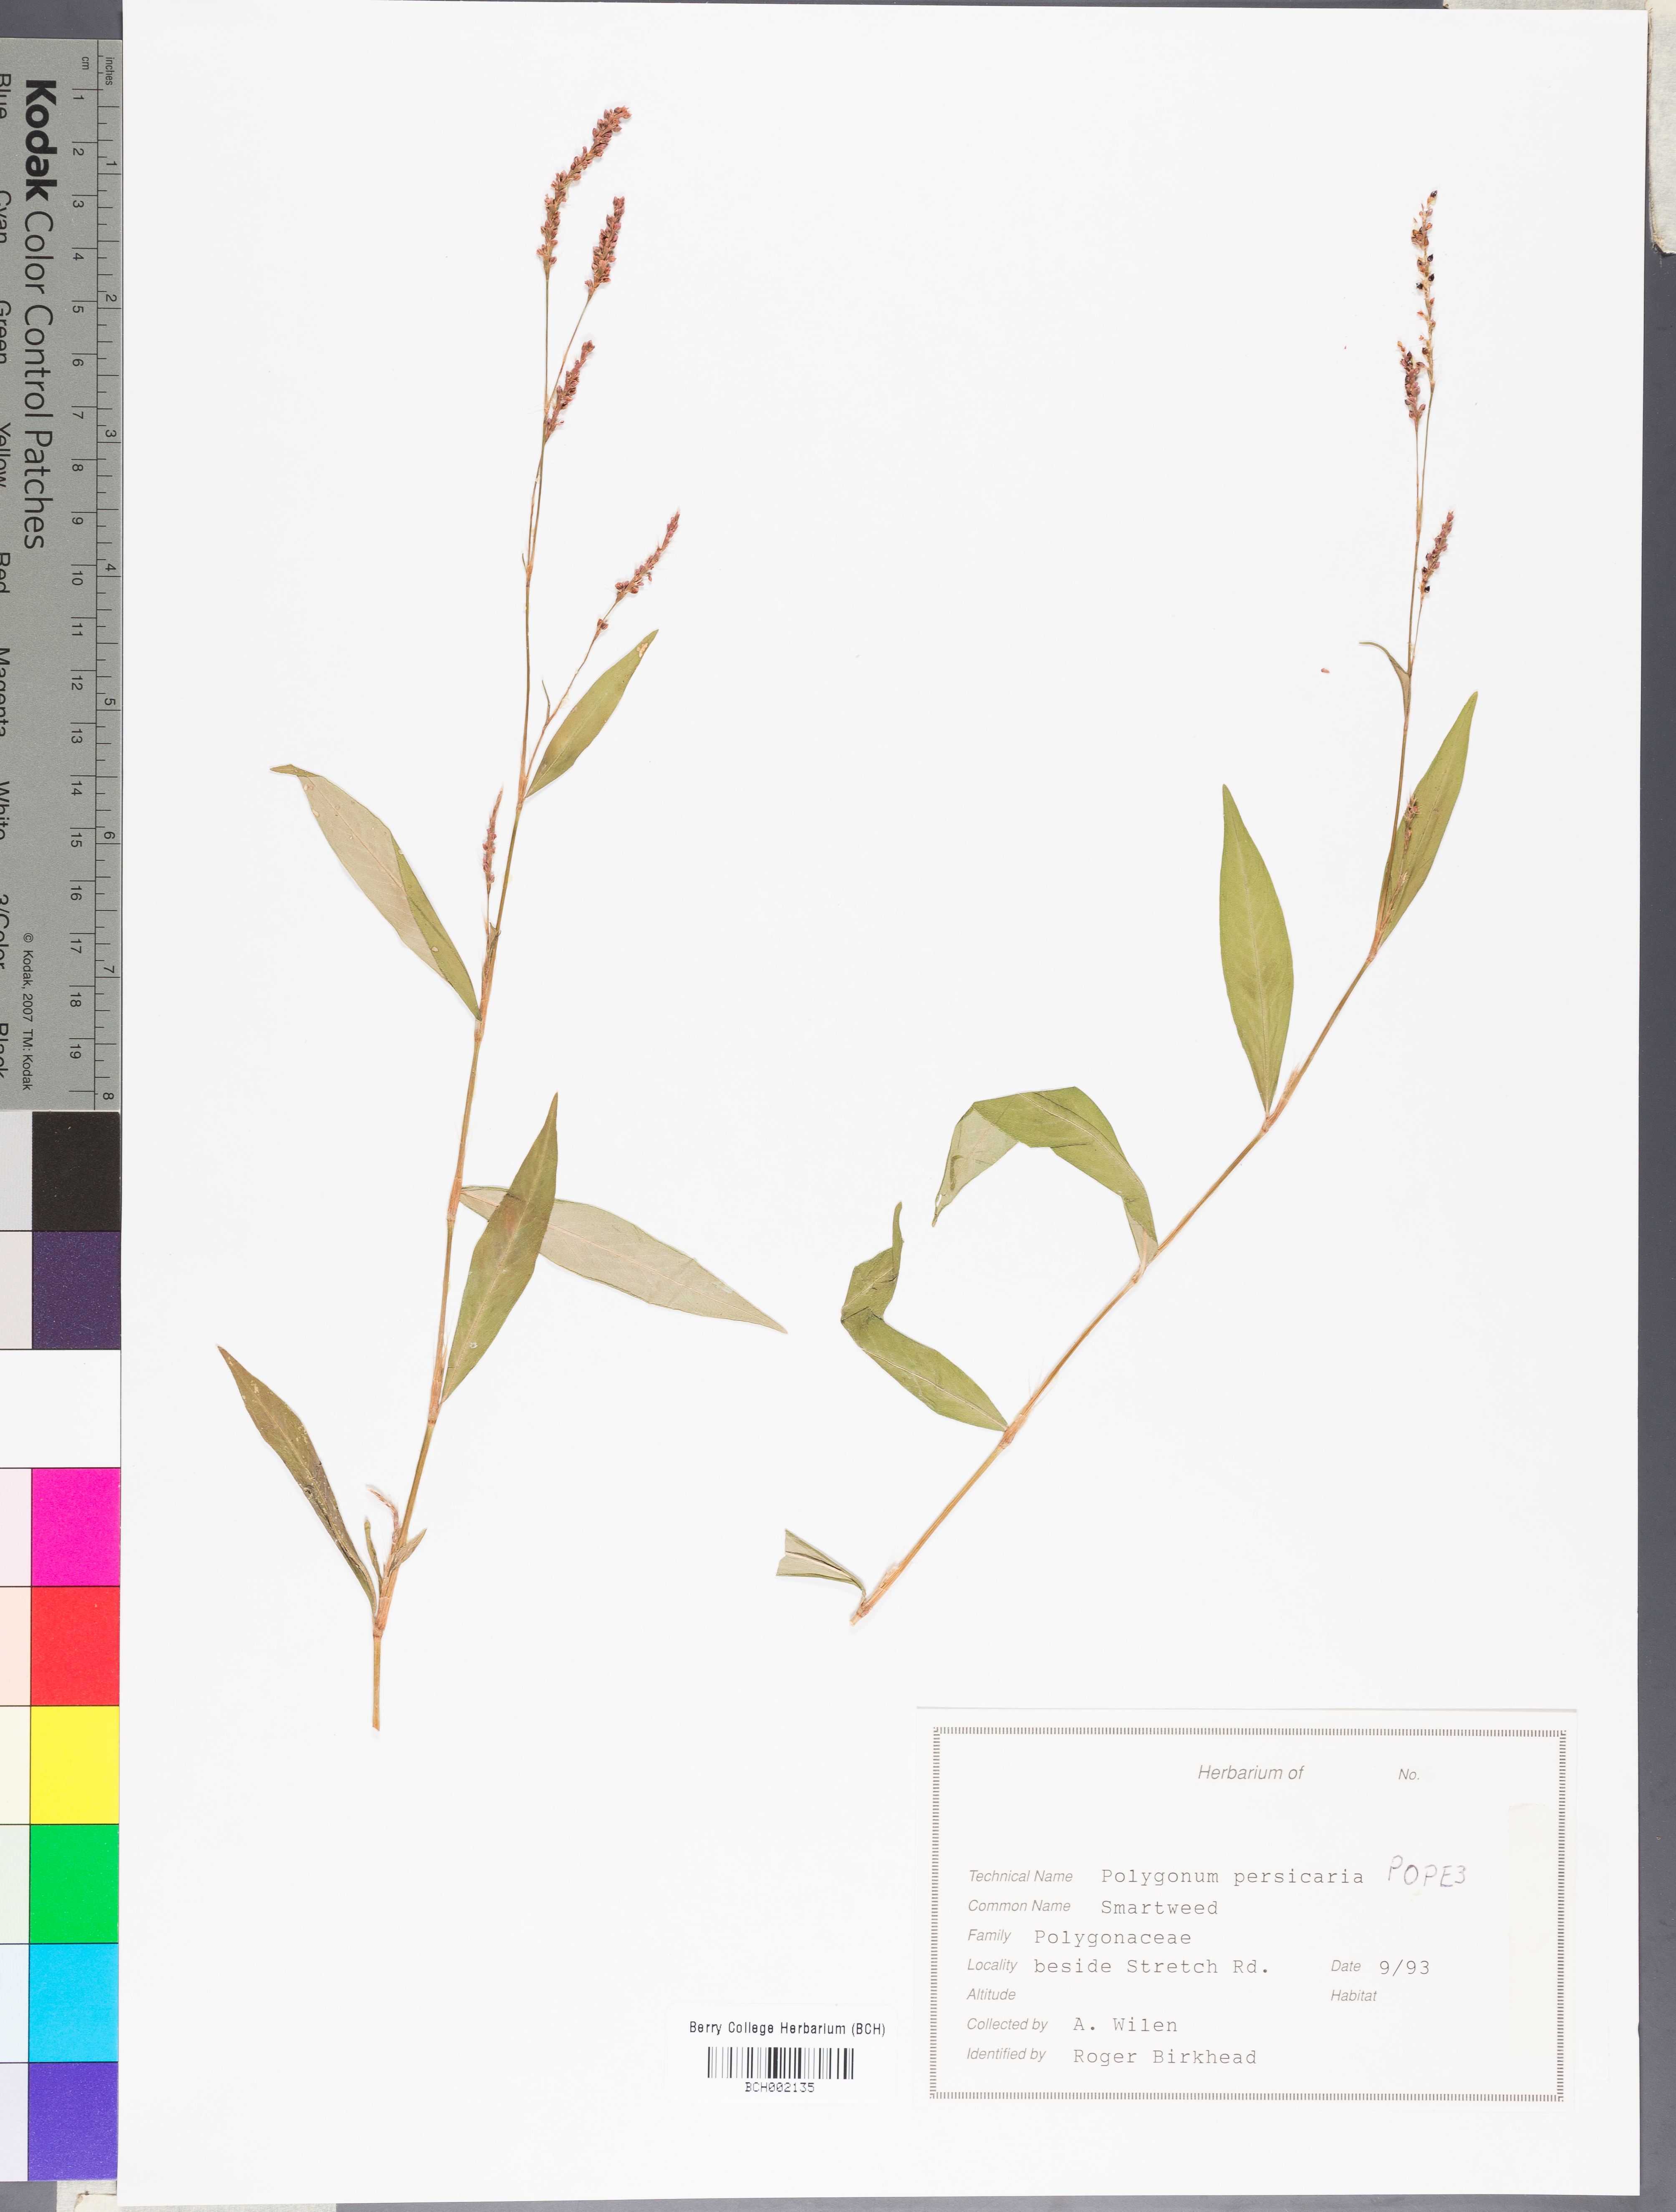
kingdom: Plantae
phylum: Tracheophyta
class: Magnoliopsida
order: Caryophyllales
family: Polygonaceae
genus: Persicaria
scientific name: Persicaria maculosa
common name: Redshank
